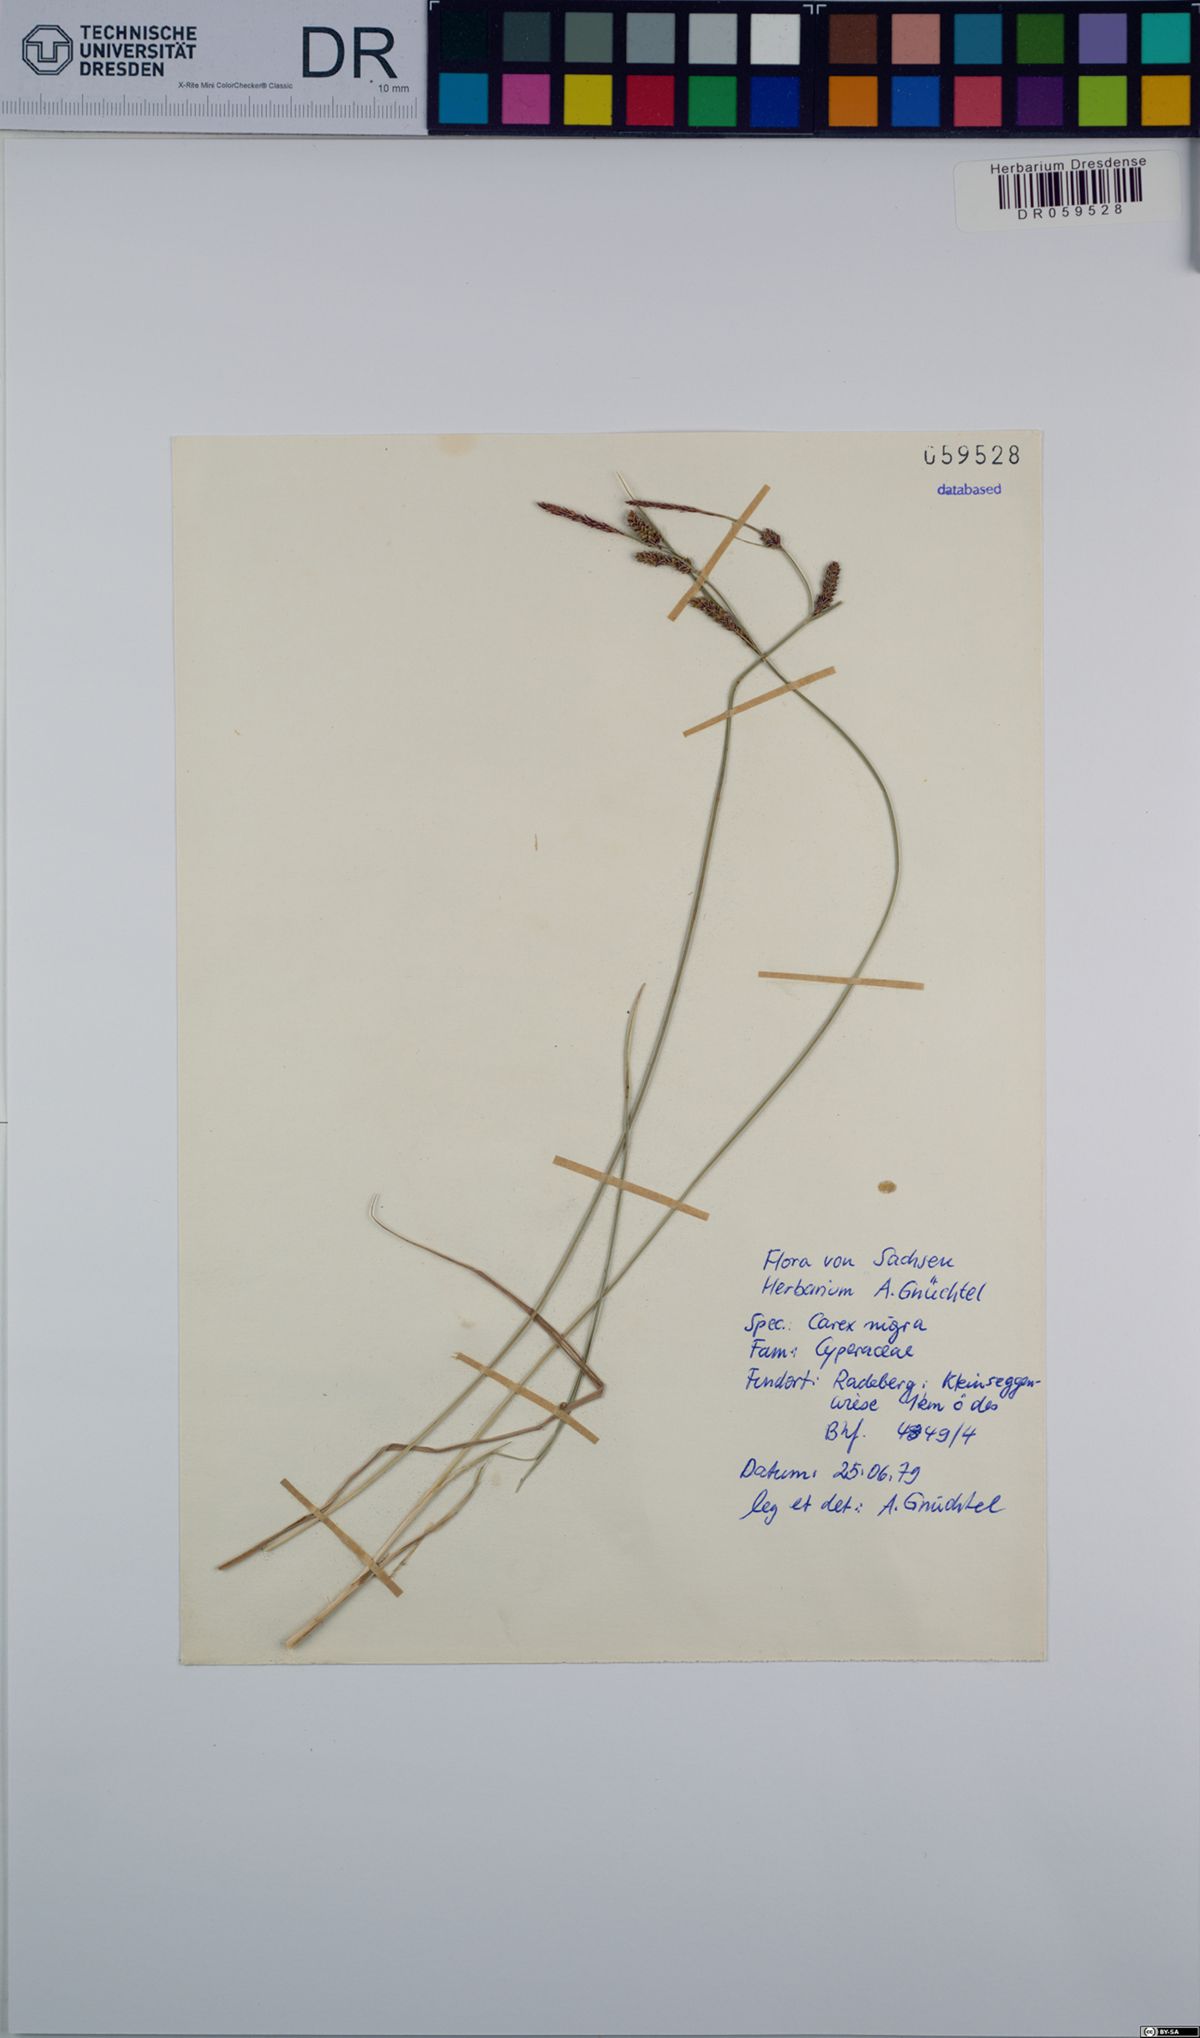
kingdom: Plantae
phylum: Tracheophyta
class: Liliopsida
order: Poales
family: Cyperaceae
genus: Carex
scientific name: Carex nigra
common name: Common sedge
